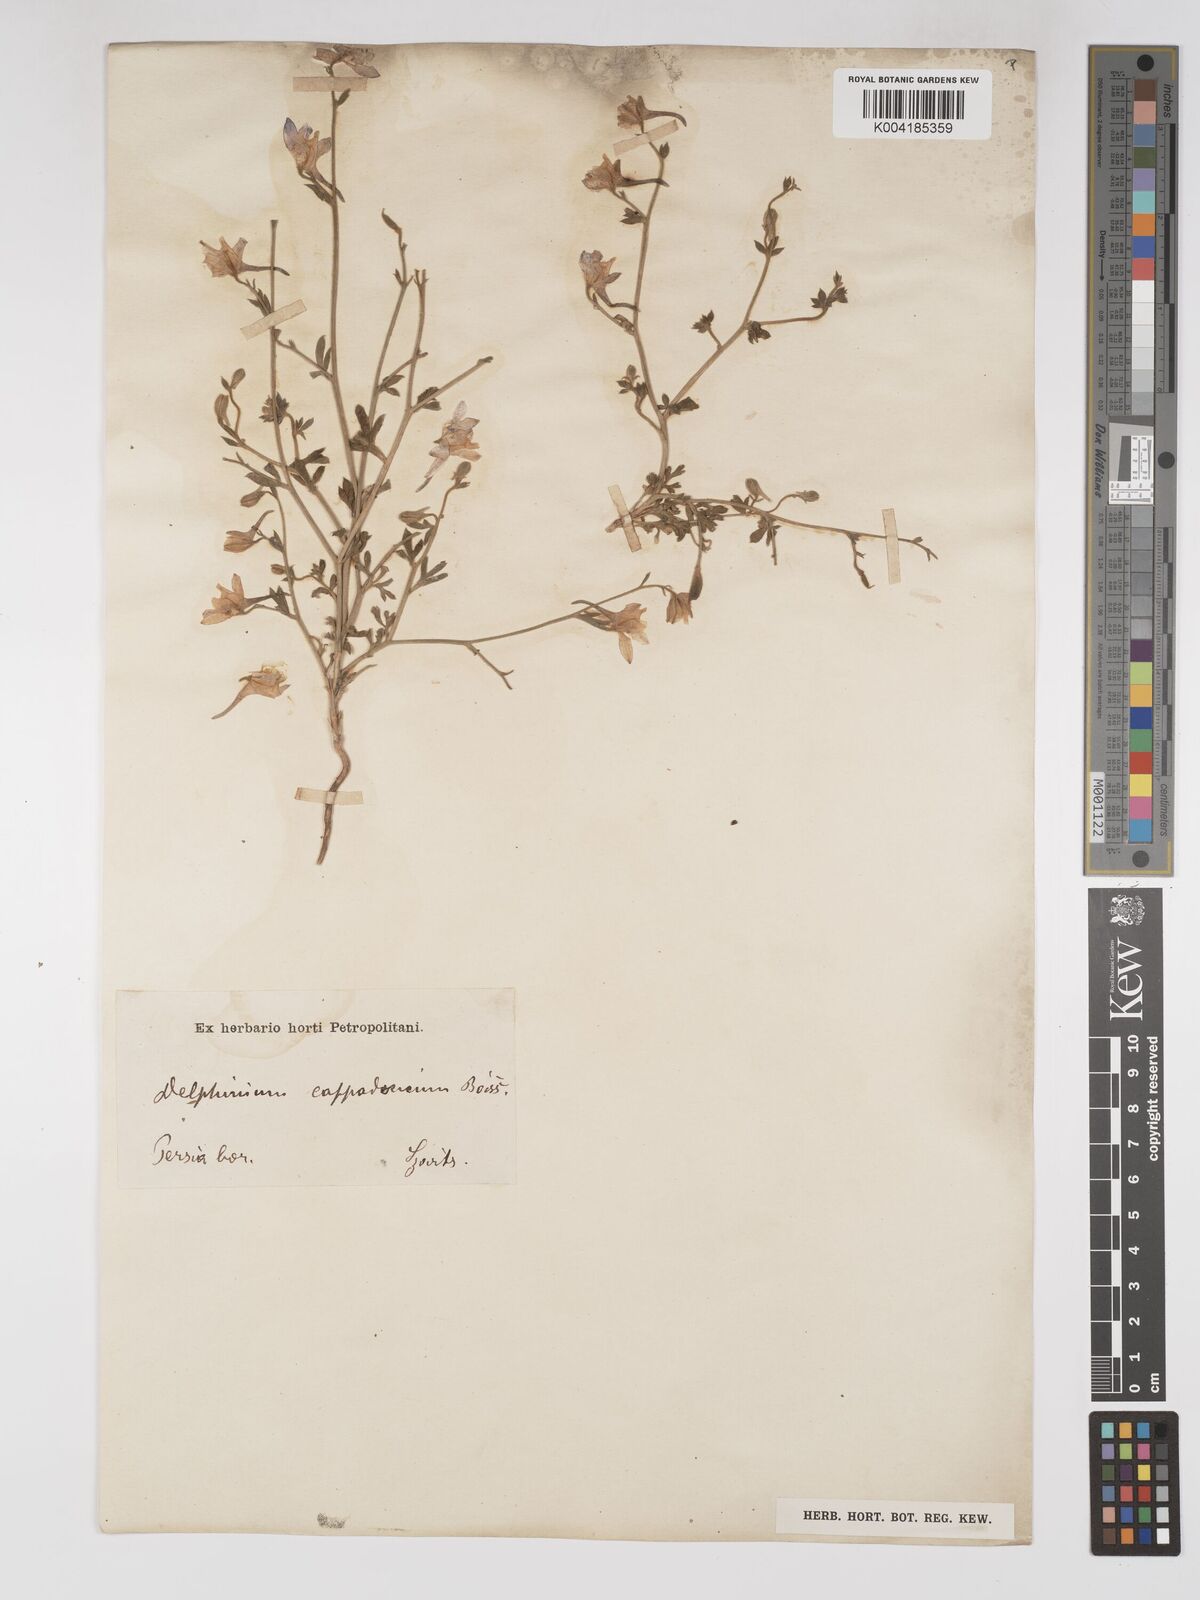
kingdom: Plantae
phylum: Tracheophyta
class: Magnoliopsida
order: Ranunculales
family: Ranunculaceae
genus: Delphinium
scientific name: Delphinium oliverianum
